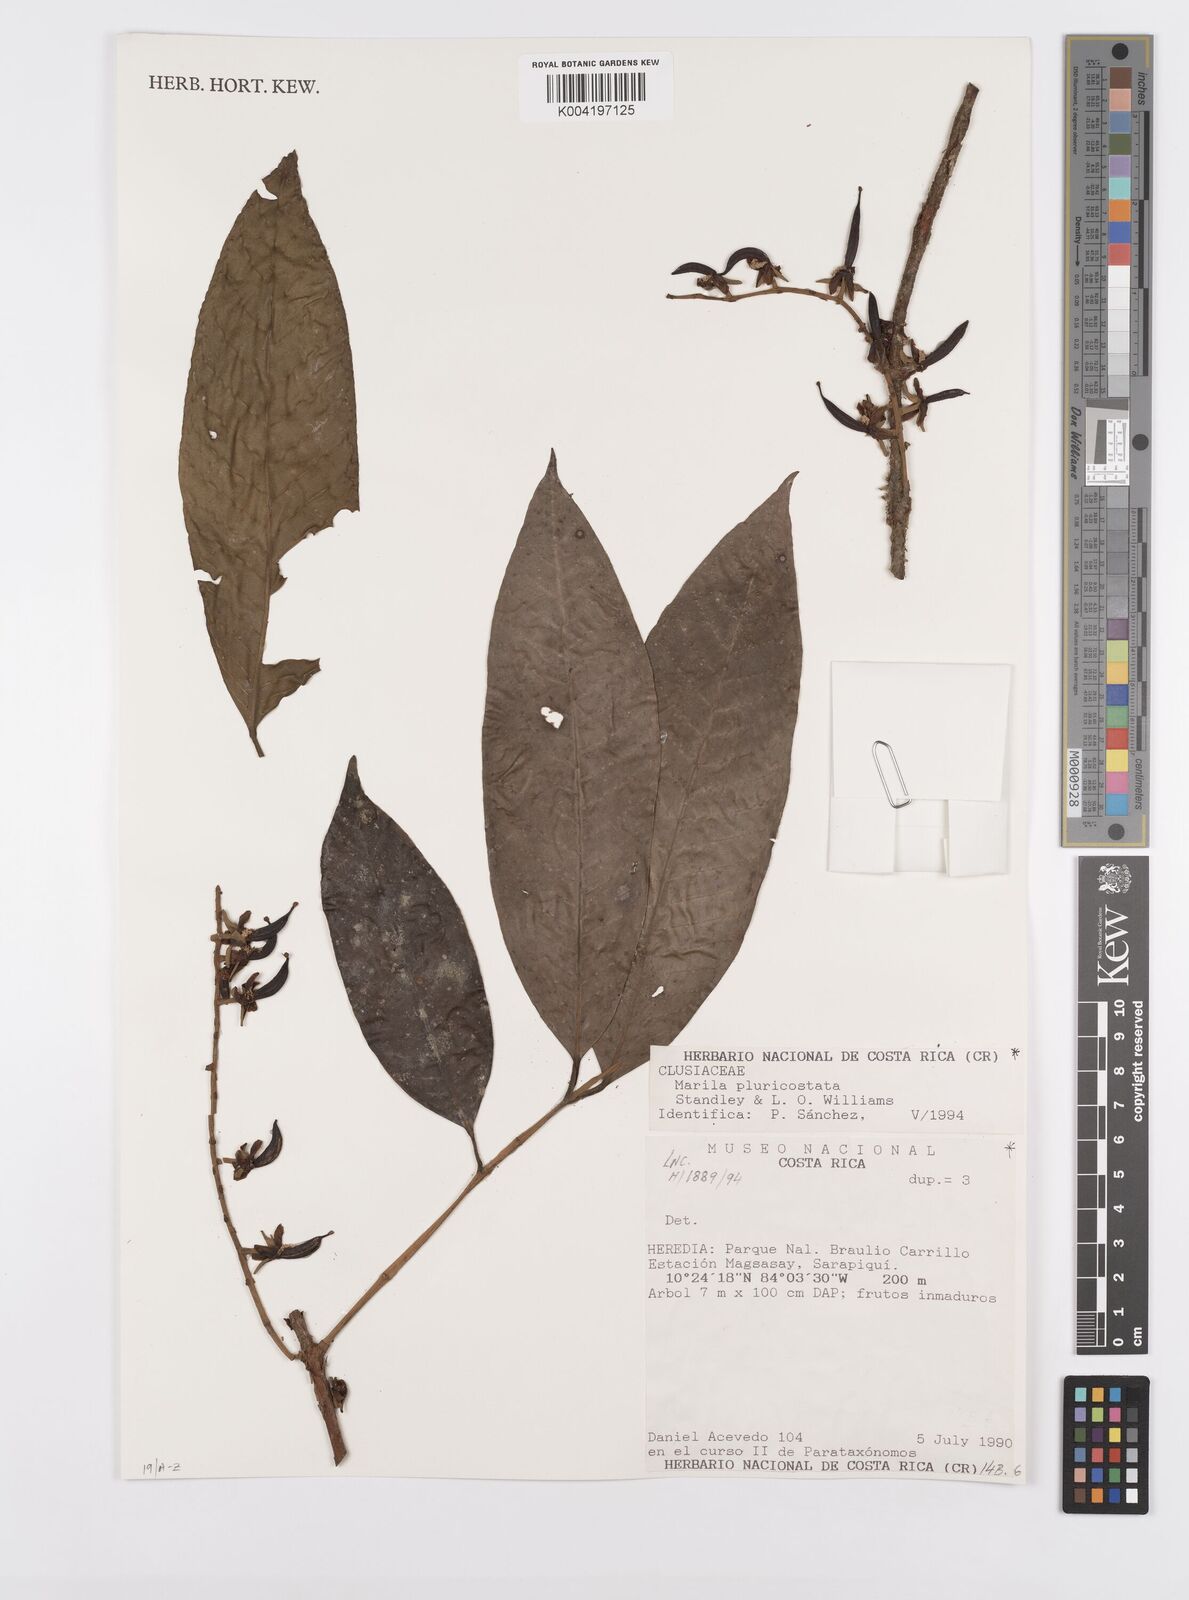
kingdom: Plantae
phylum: Tracheophyta
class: Magnoliopsida
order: Malpighiales
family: Calophyllaceae
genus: Marila
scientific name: Marila podantha
